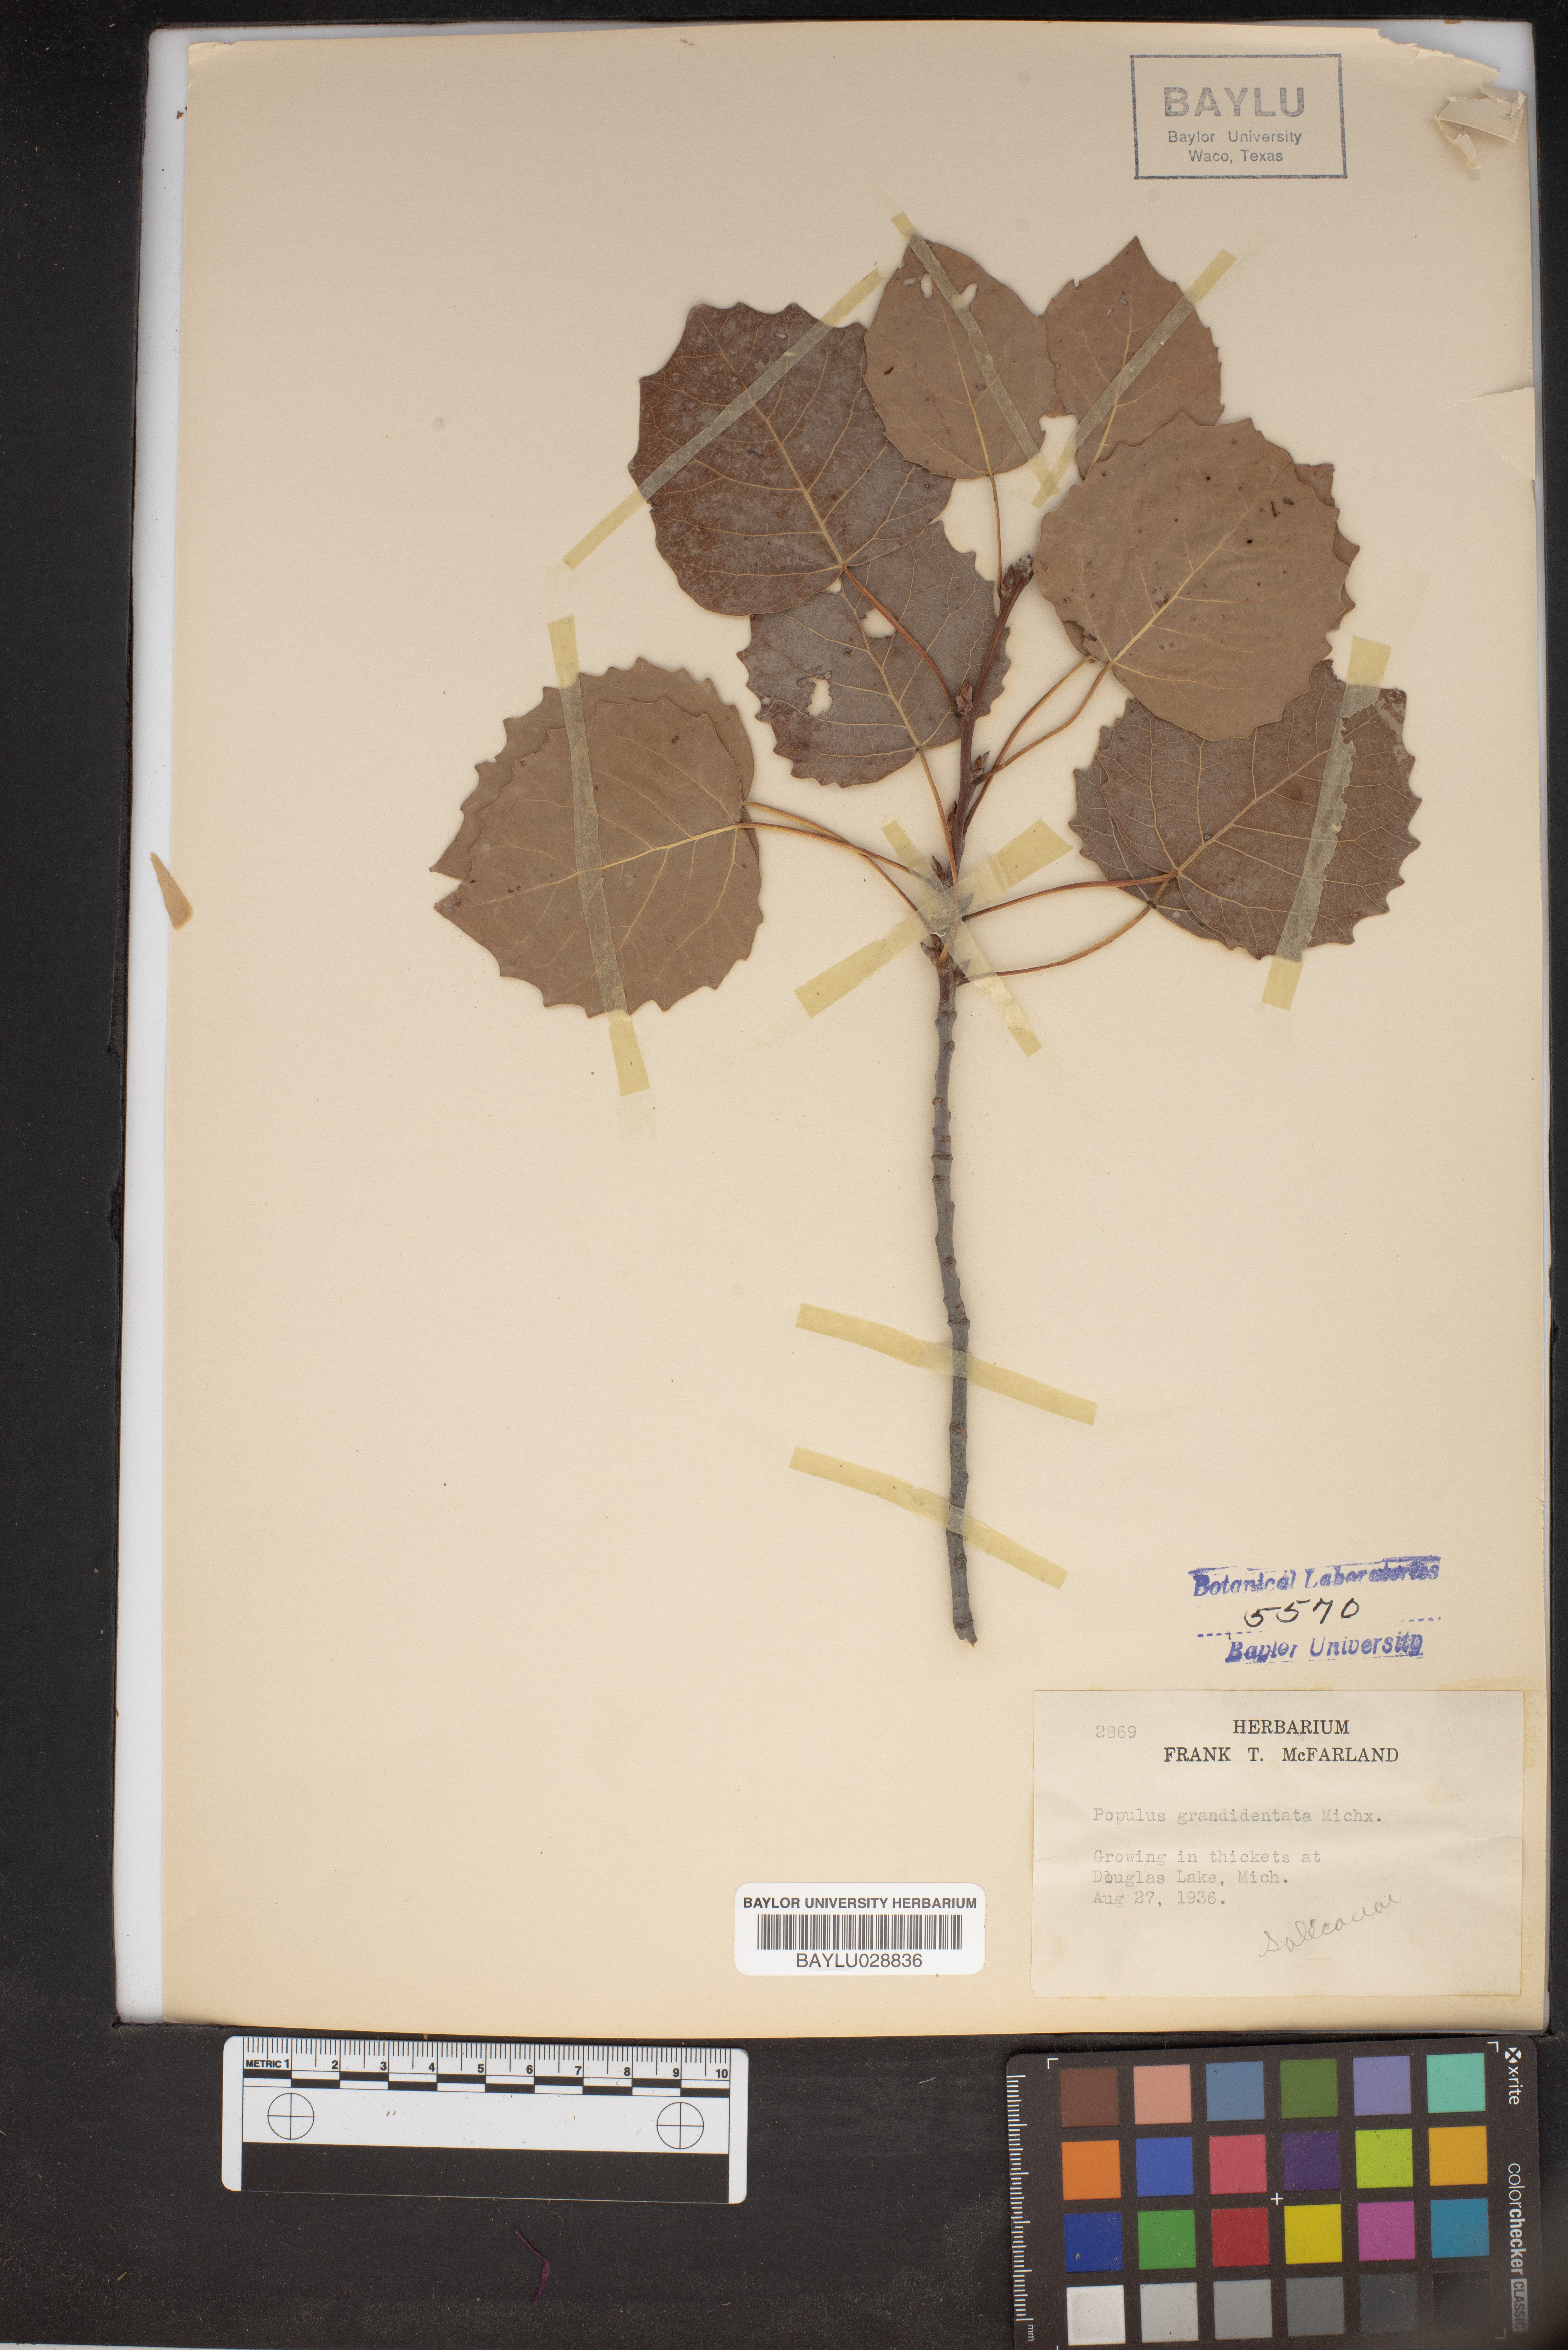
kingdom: Plantae
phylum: Tracheophyta
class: Magnoliopsida
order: Malpighiales
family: Salicaceae
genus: Populus
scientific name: Populus grandidentata
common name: Bigtooth aspen
